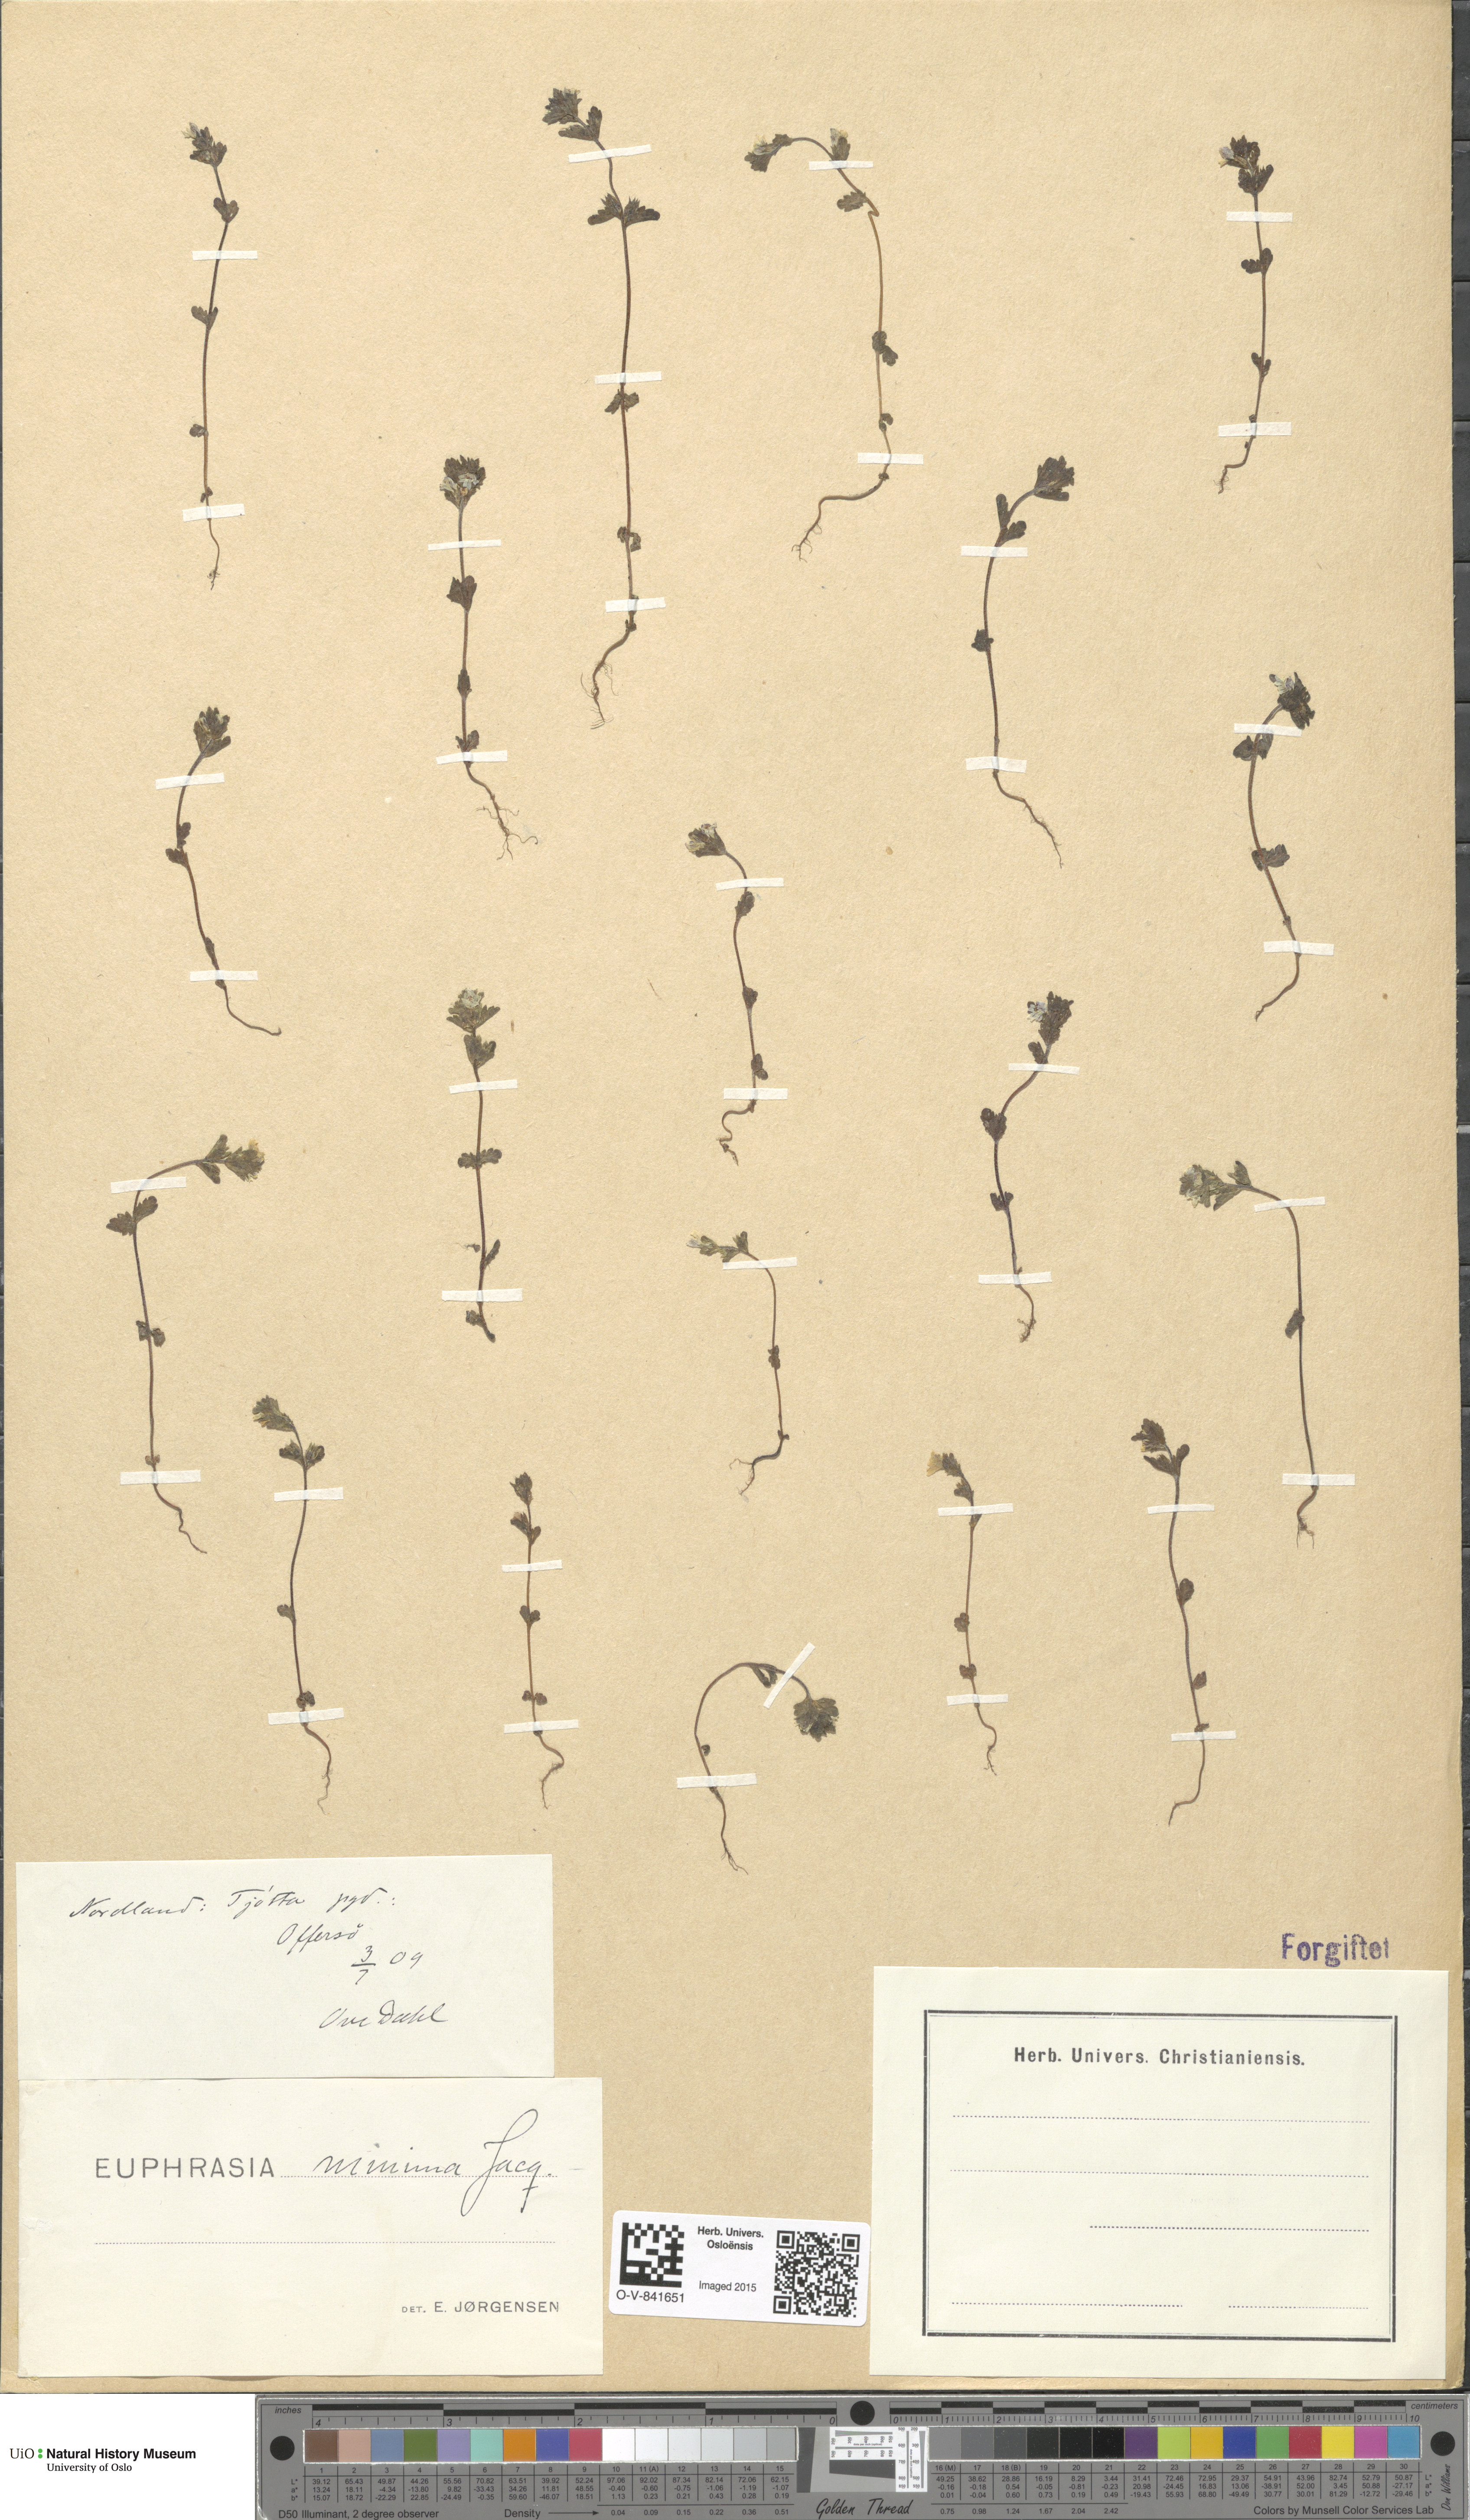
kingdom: Plantae
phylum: Tracheophyta
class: Magnoliopsida
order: Lamiales
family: Orobanchaceae
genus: Euphrasia
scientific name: Euphrasia wettsteinii
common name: Wettstein's eyebright
